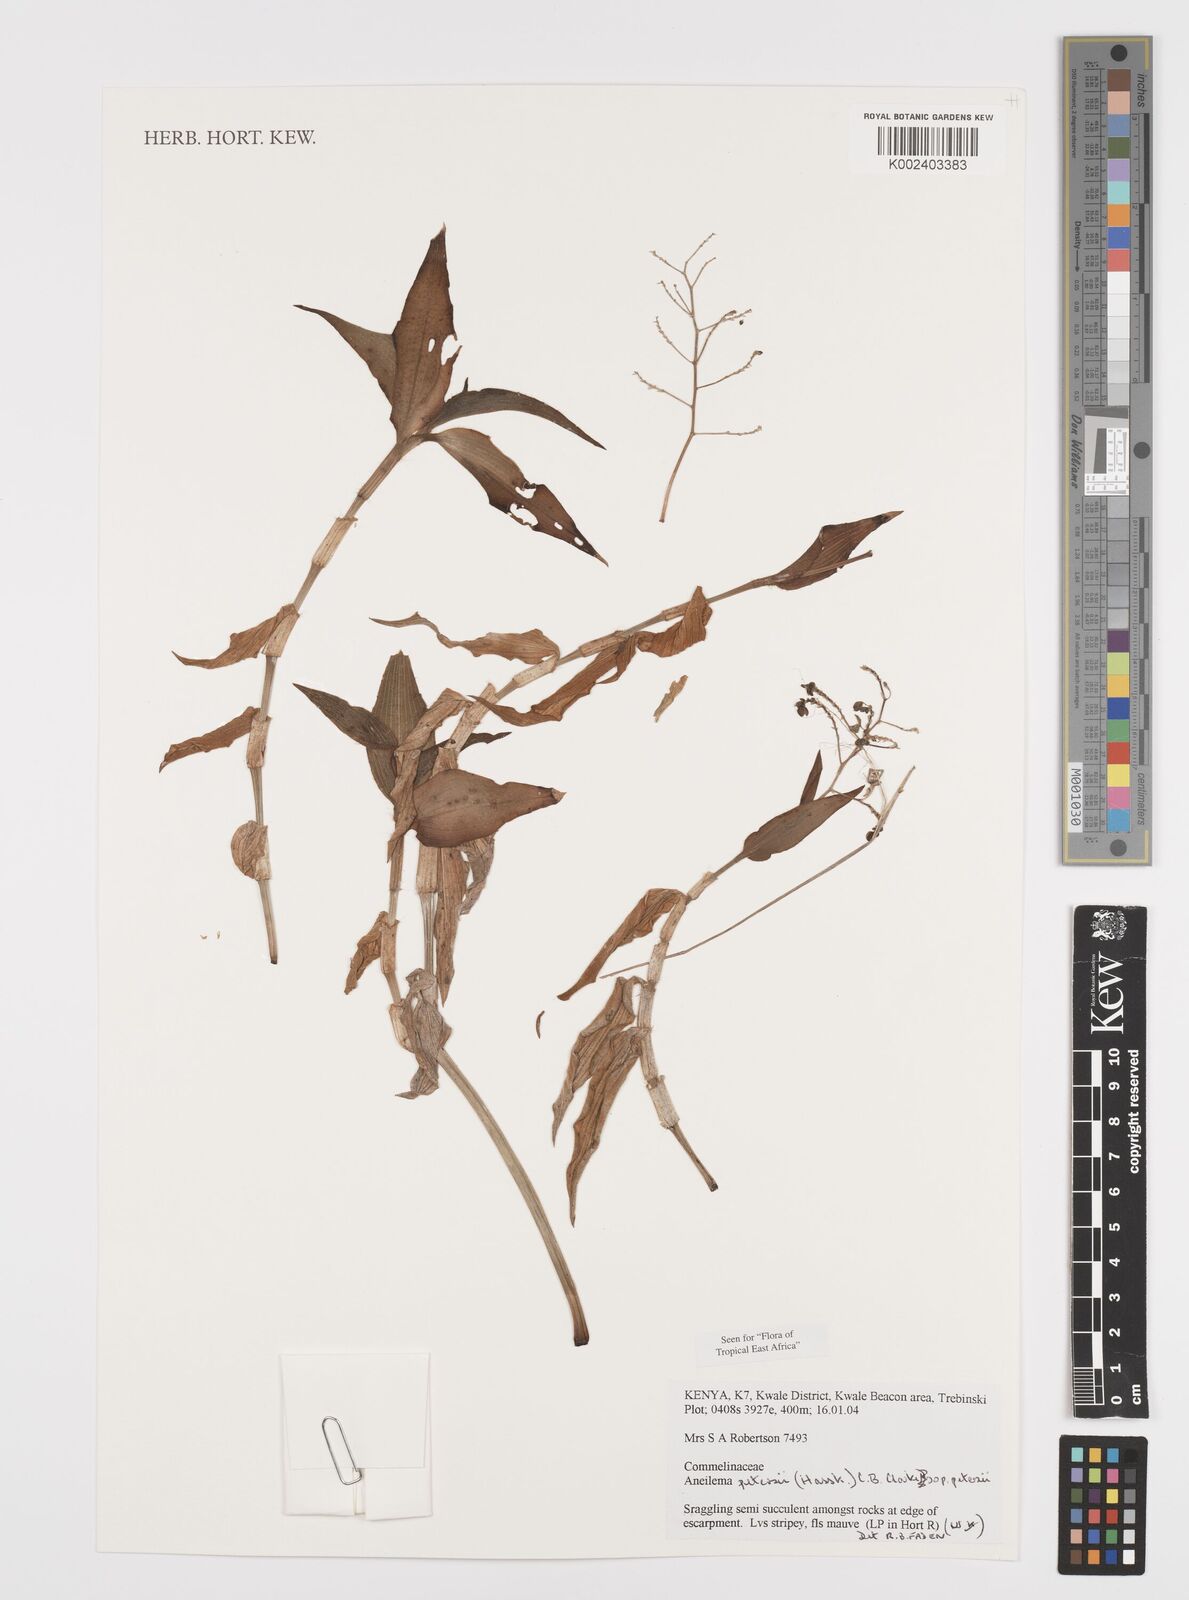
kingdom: Plantae
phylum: Tracheophyta
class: Liliopsida
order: Commelinales
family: Commelinaceae
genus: Aneilema
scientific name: Aneilema petersii
